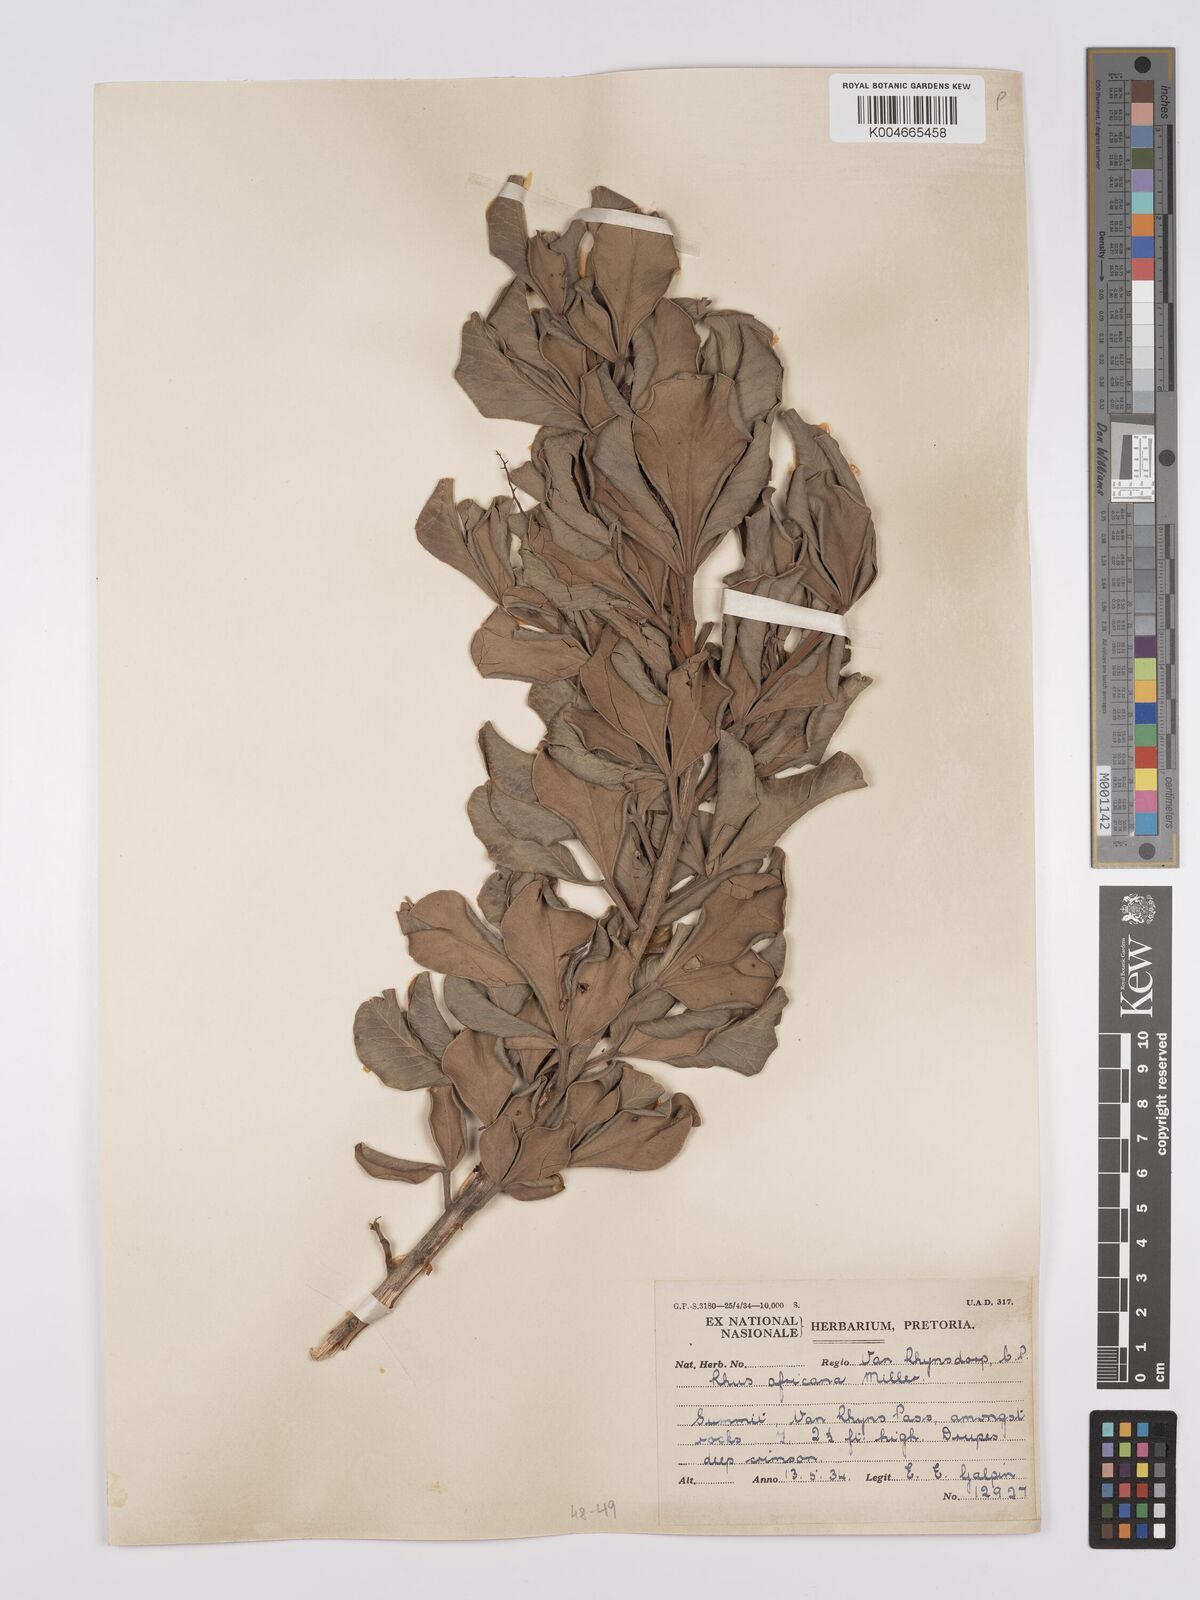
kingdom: Plantae
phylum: Tracheophyta
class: Magnoliopsida
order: Sapindales
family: Anacardiaceae
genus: Searsia
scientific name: Searsia lucida
